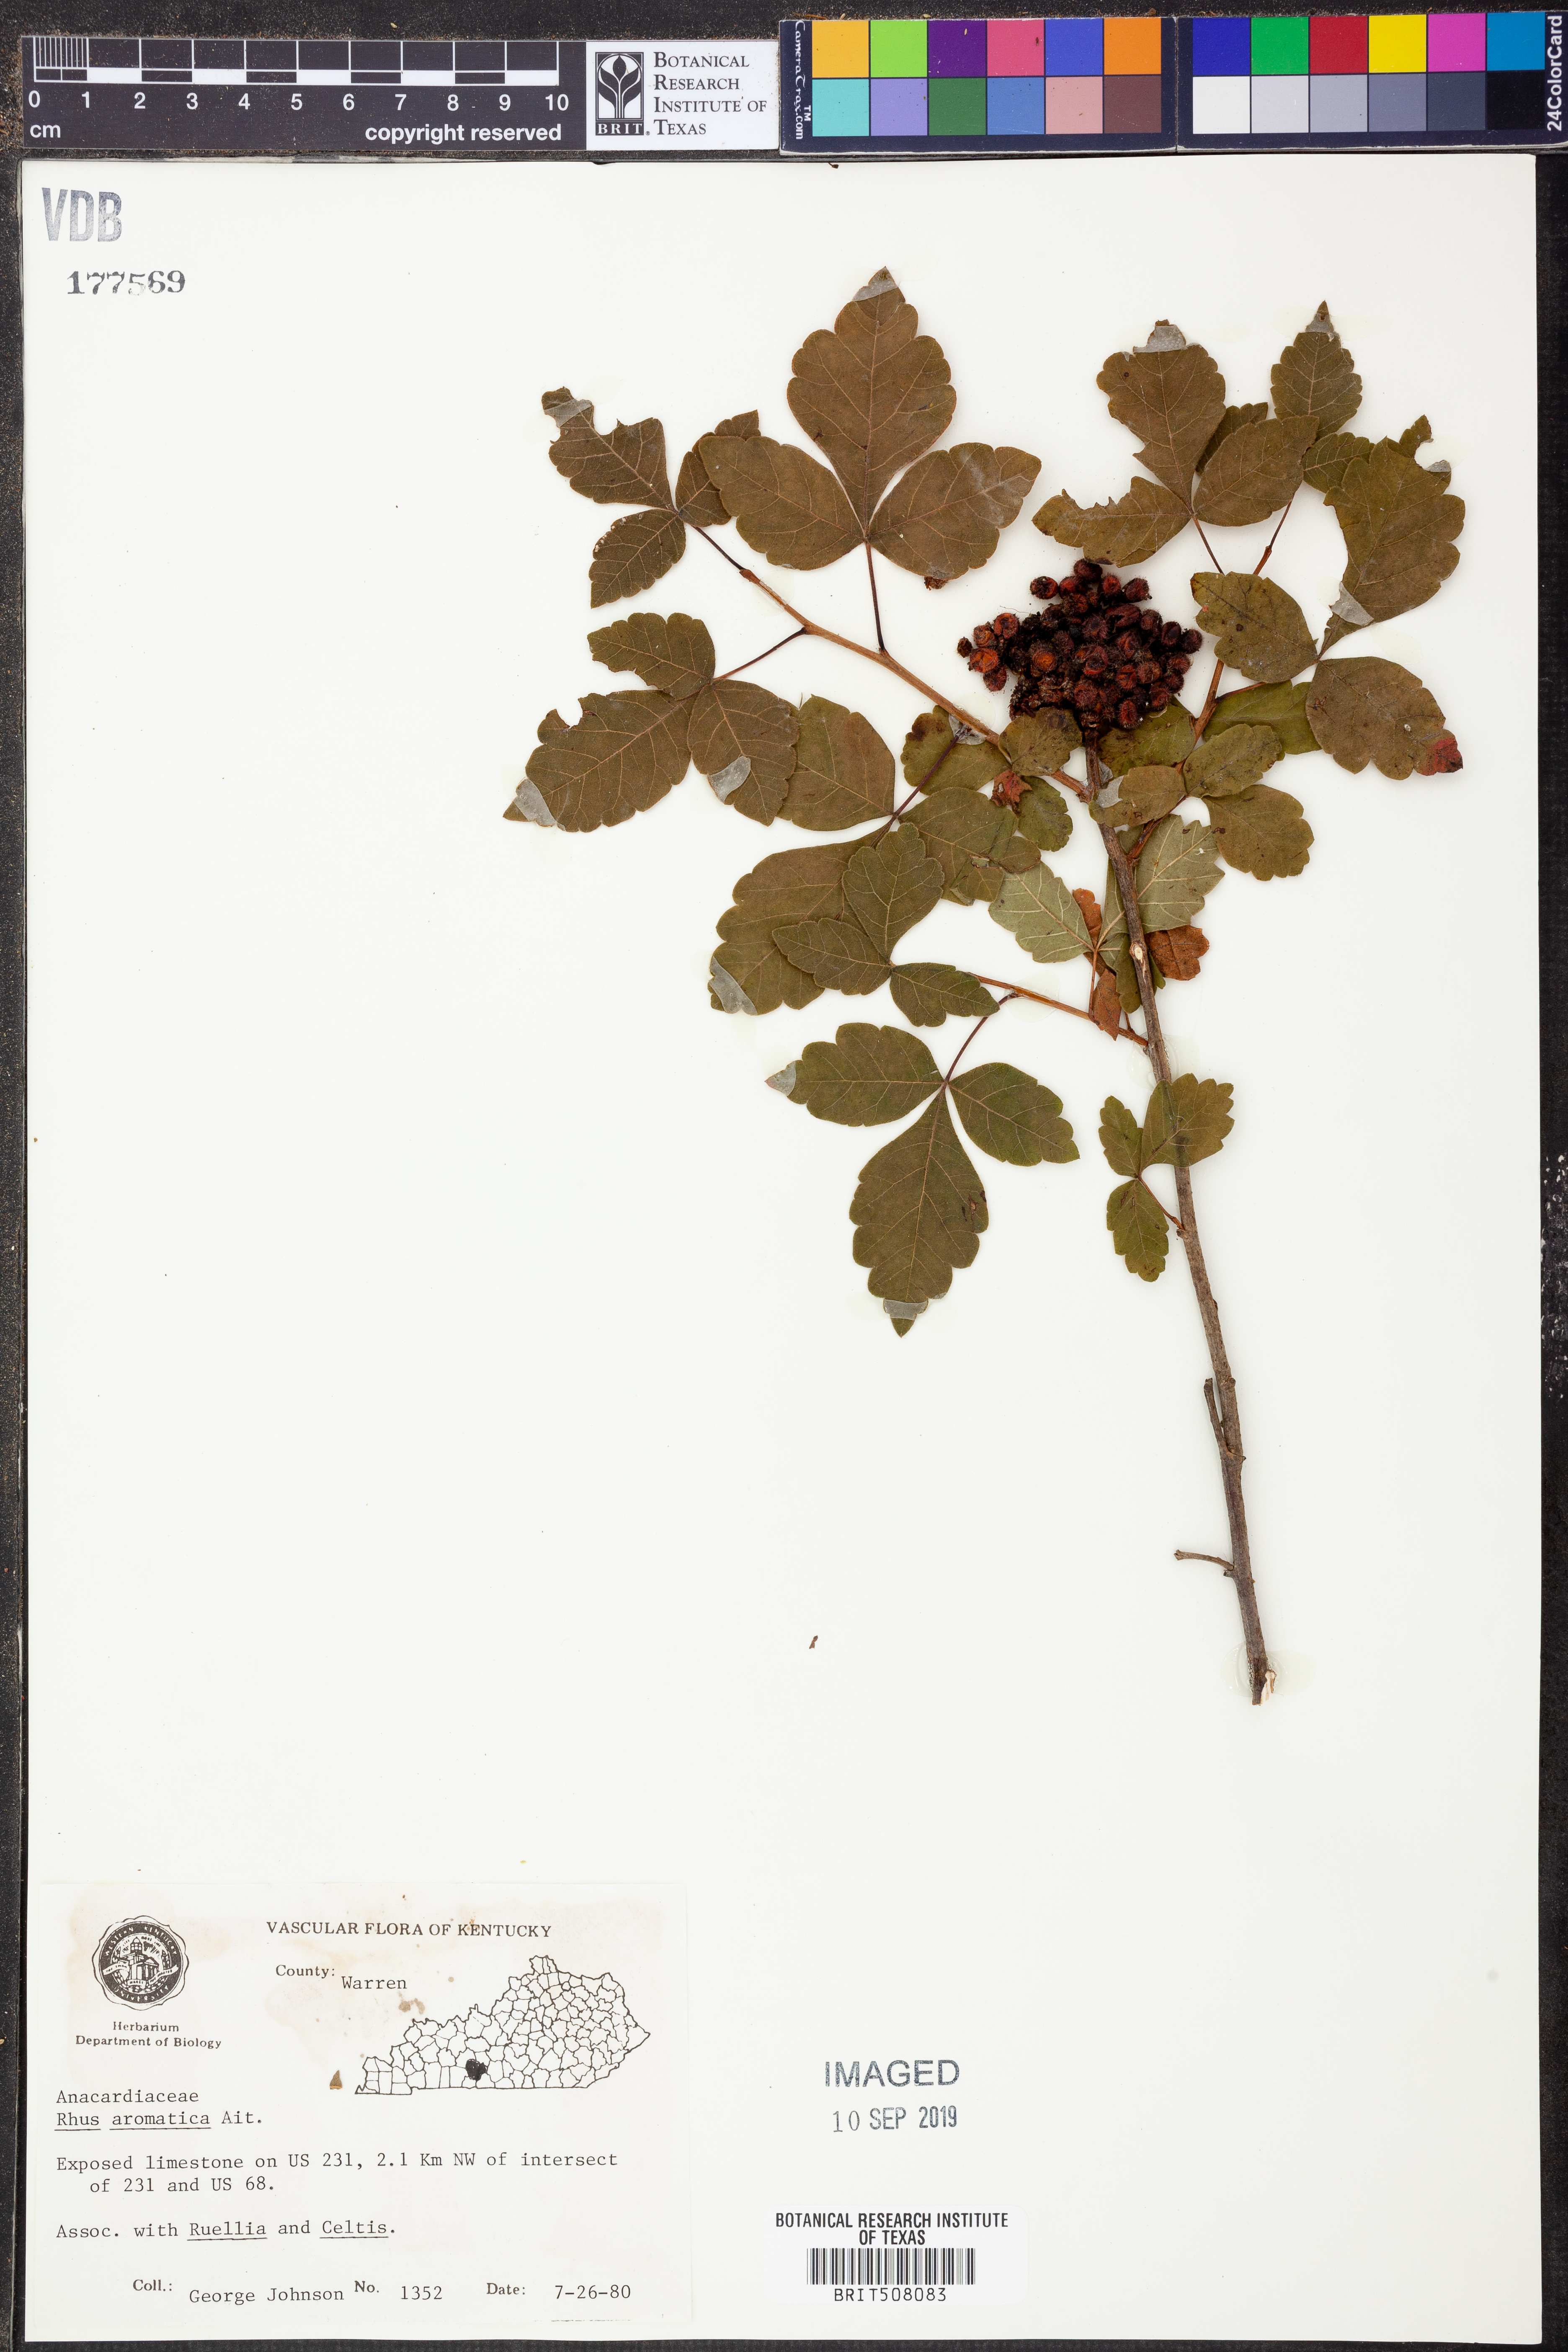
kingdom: Plantae
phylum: Tracheophyta
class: Magnoliopsida
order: Sapindales
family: Anacardiaceae
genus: Rhus
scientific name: Rhus aromatica
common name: Aromatic sumac
